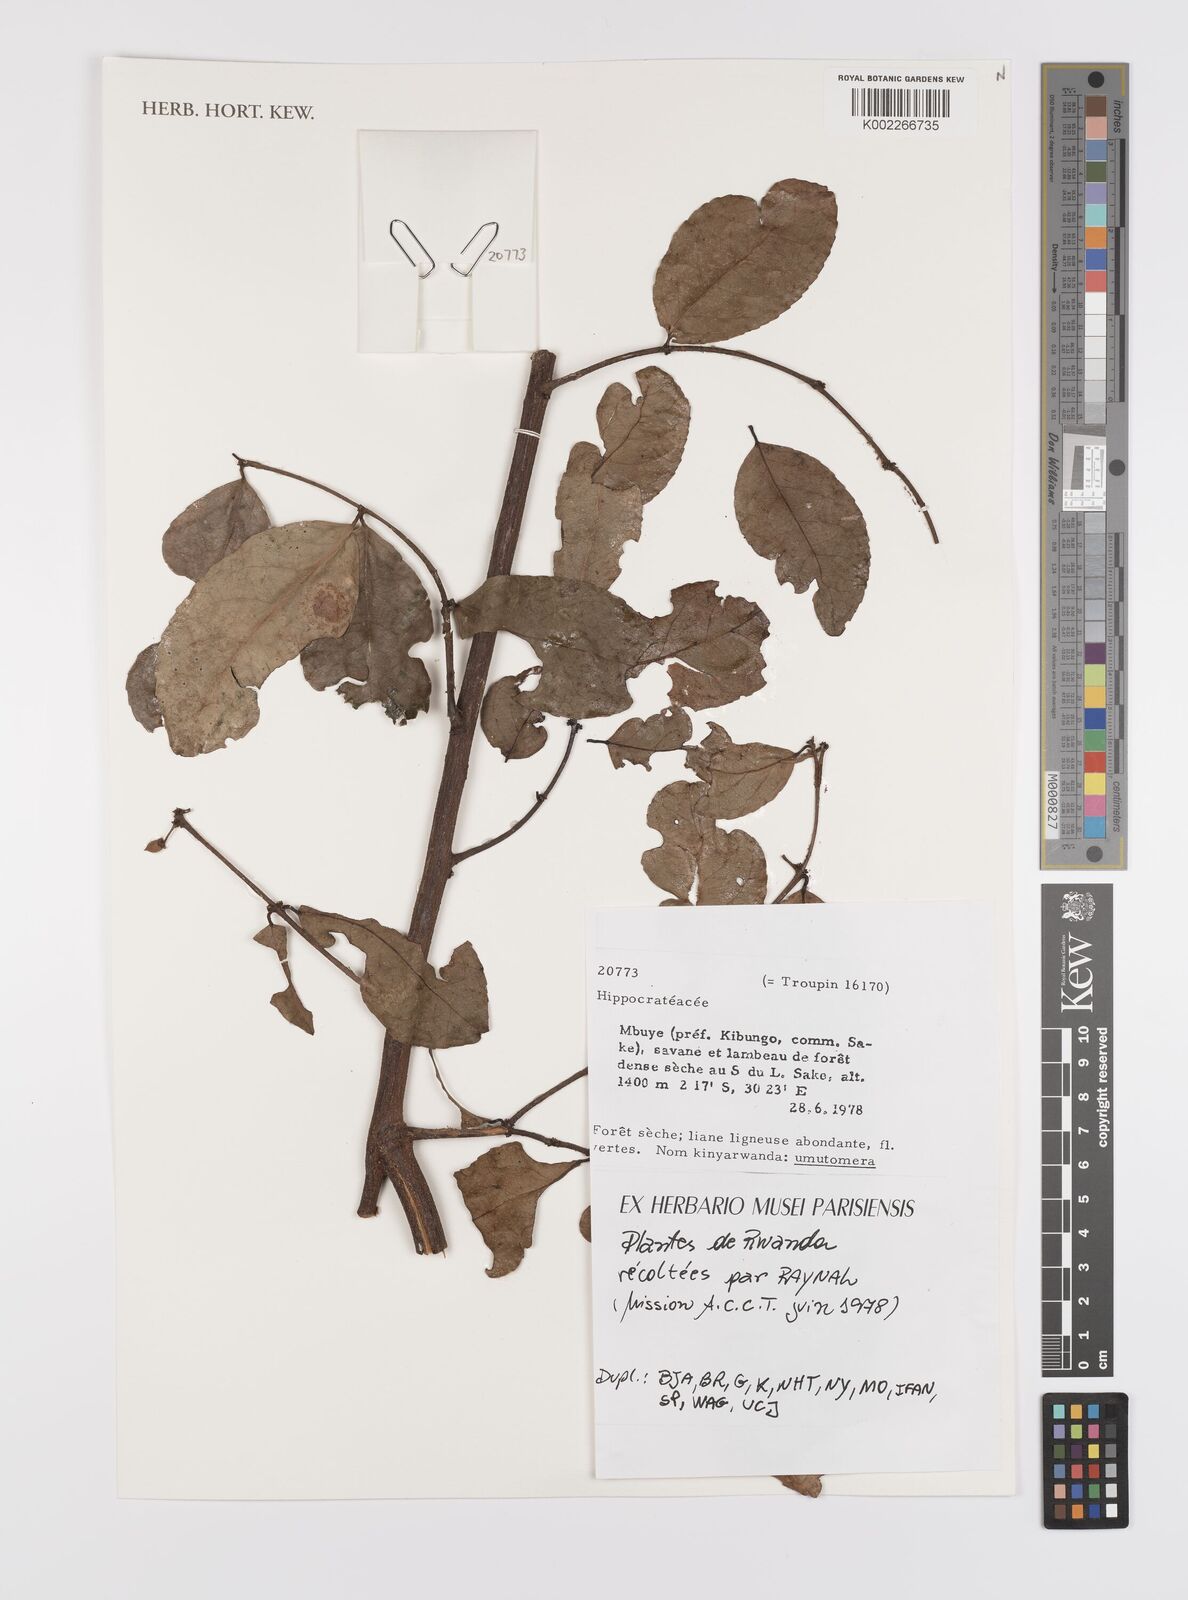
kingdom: Plantae
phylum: Tracheophyta
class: Magnoliopsida
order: Celastrales
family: Celastraceae
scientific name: Celastraceae
